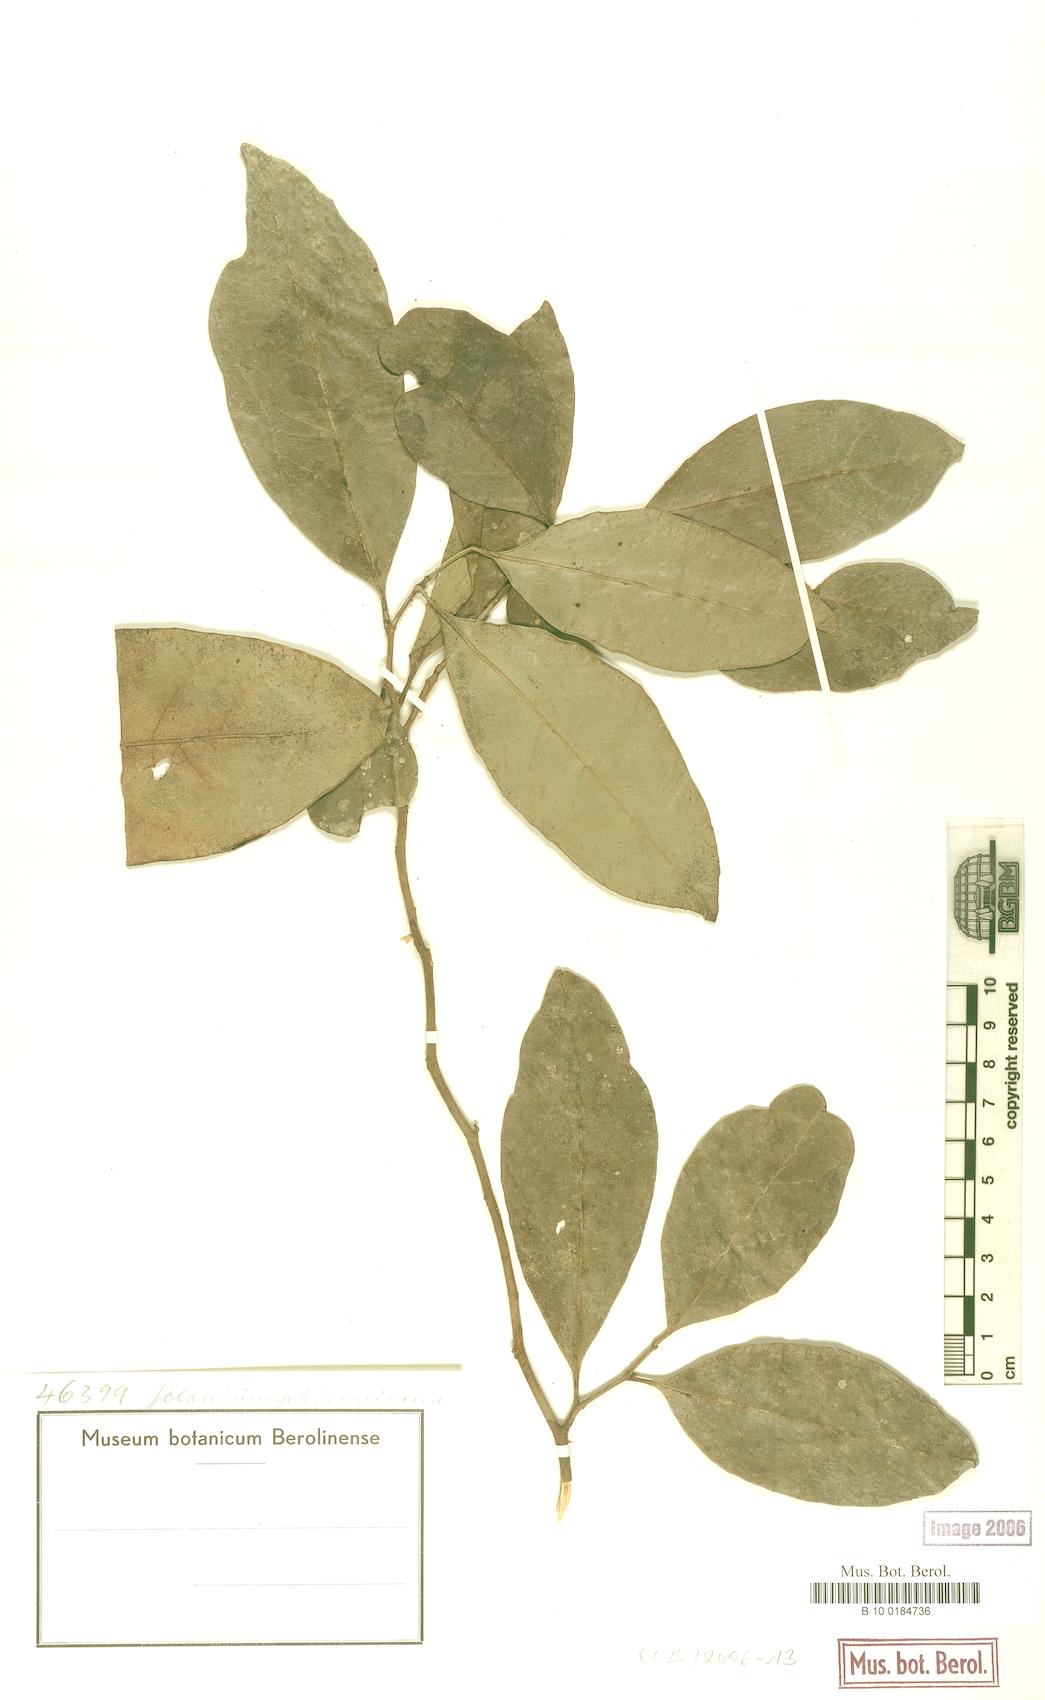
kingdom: Plantae
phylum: Tracheophyta
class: Magnoliopsida
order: Malpighiales
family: Euphorbiaceae
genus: Suregada
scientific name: Suregada glomerulata
